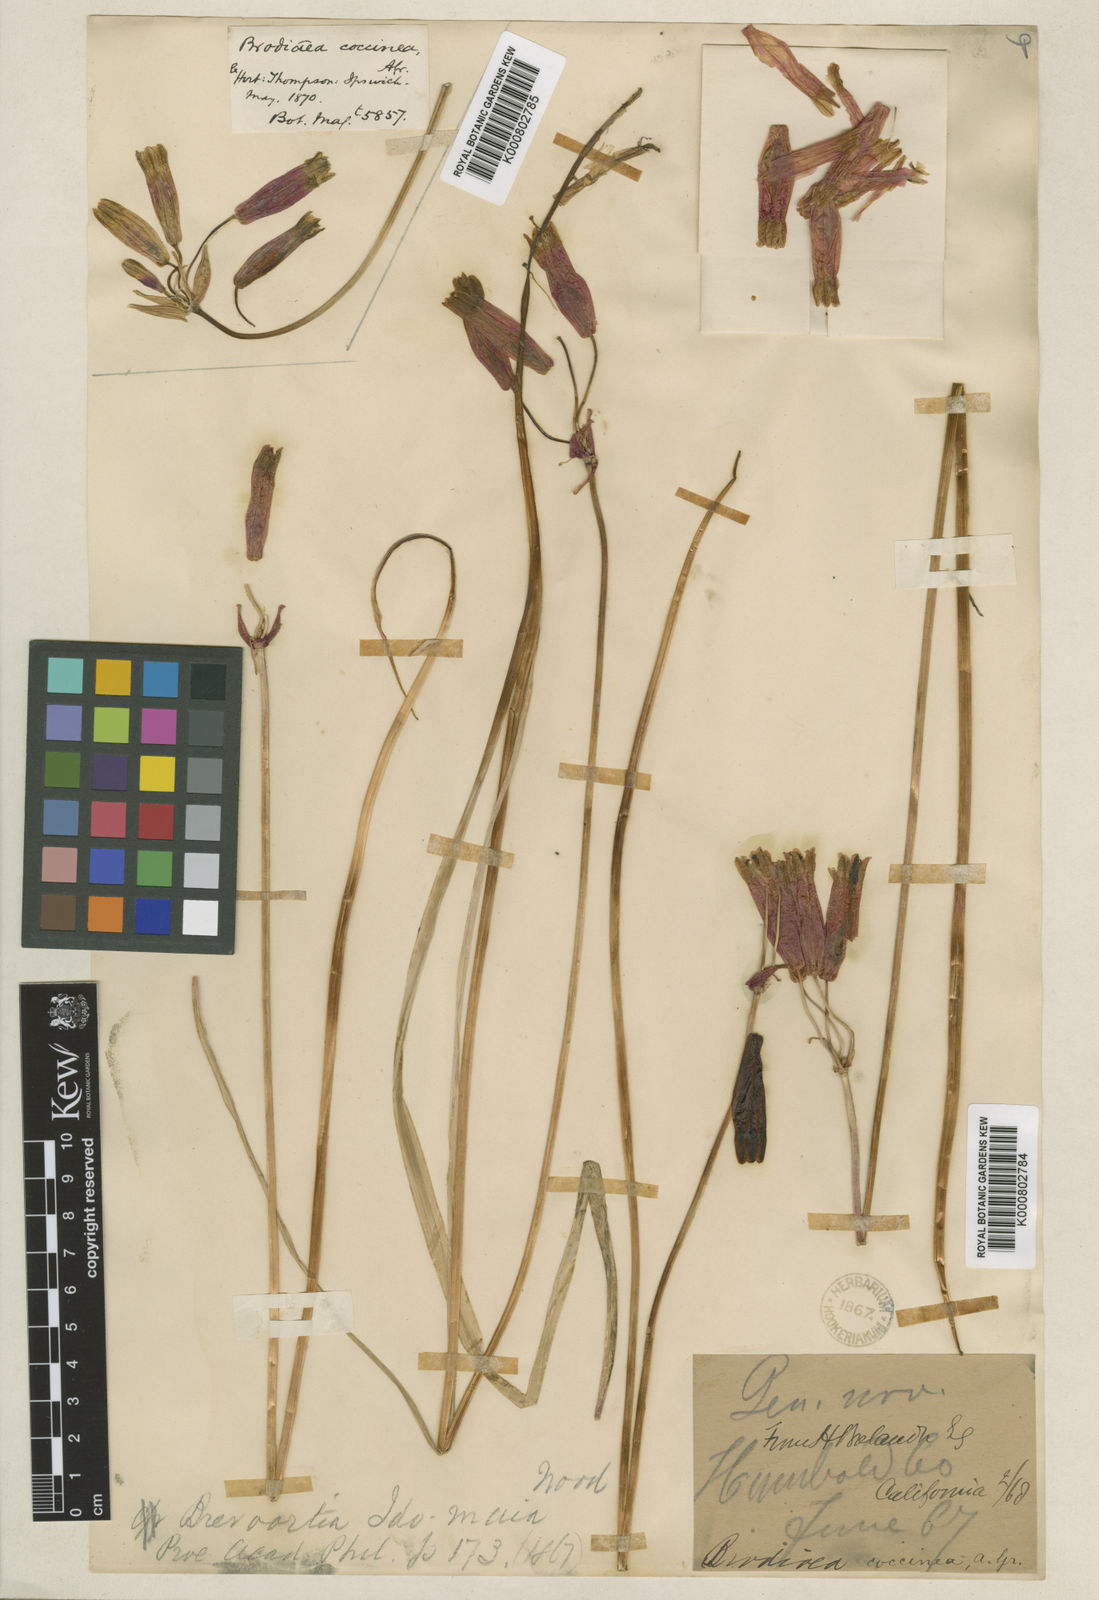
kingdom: Plantae
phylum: Tracheophyta
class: Liliopsida
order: Asparagales
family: Asparagaceae
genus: Dichelostemma
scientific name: Dichelostemma ida-maia
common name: Firecracker-flower
